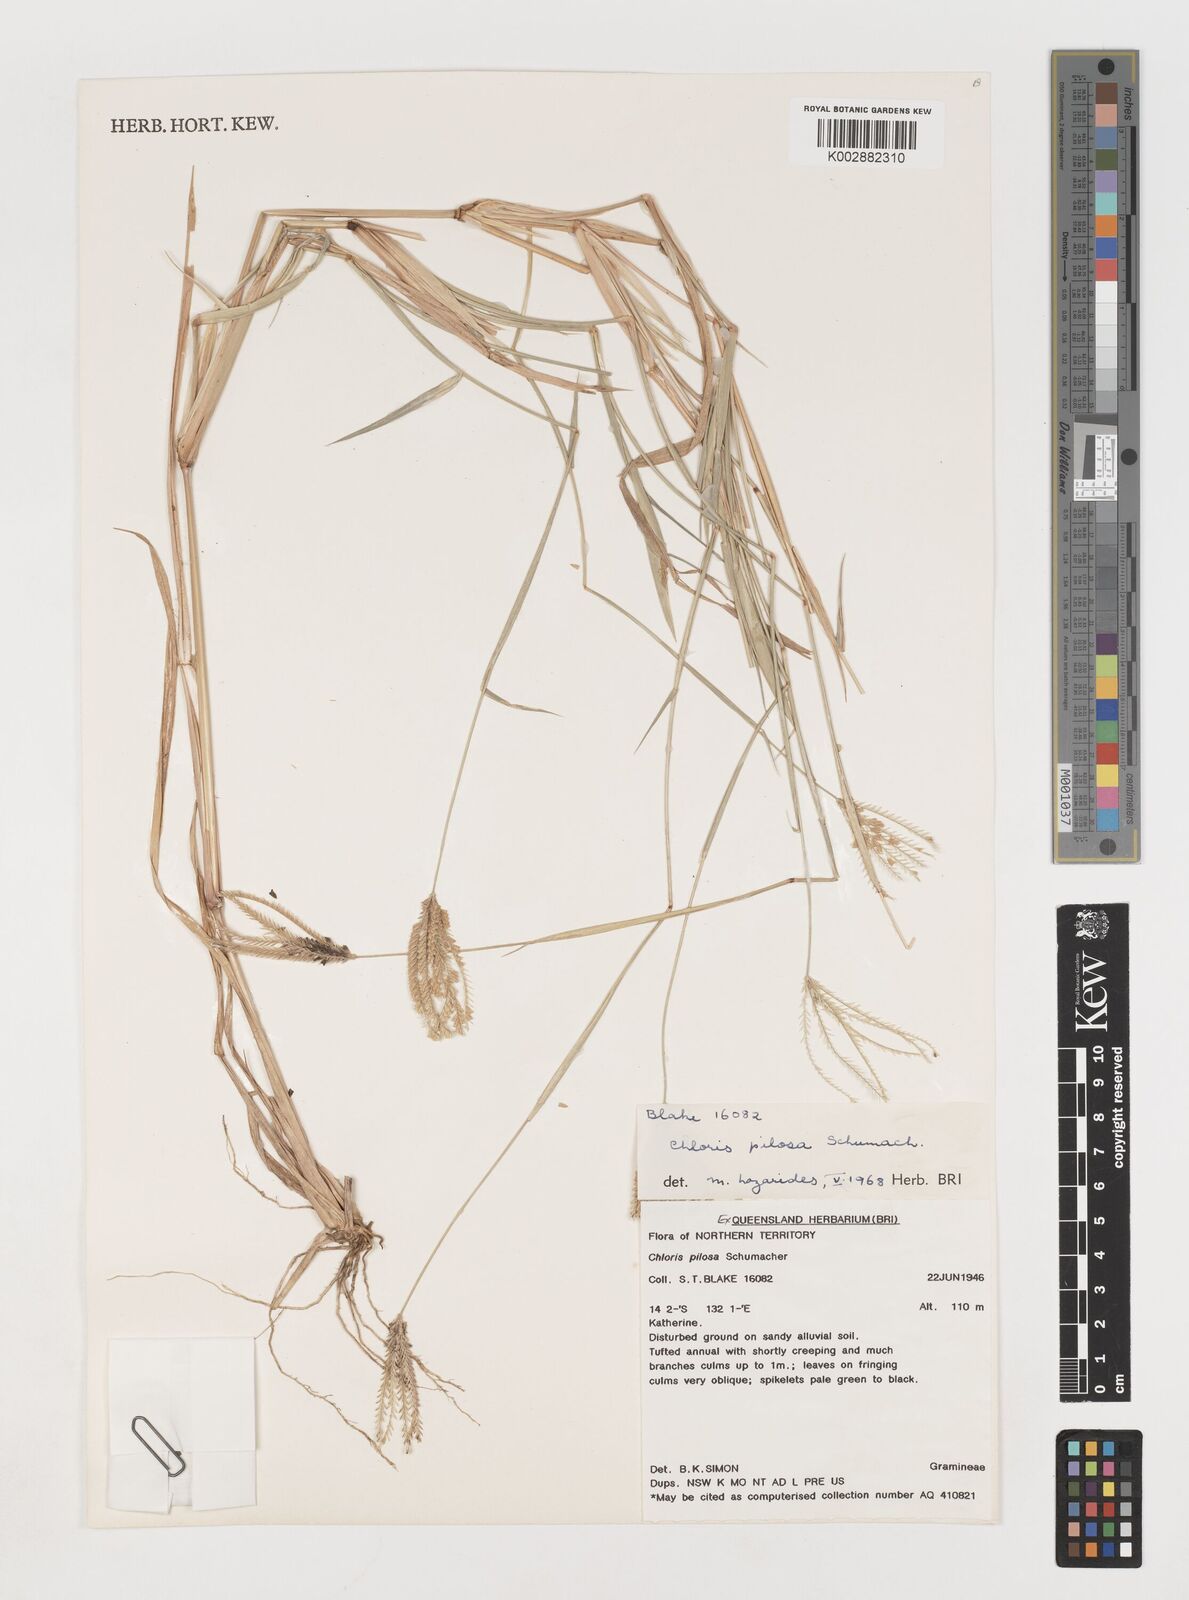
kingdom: Plantae
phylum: Tracheophyta
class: Liliopsida
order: Poales
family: Poaceae
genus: Chloris
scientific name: Chloris pilosa
